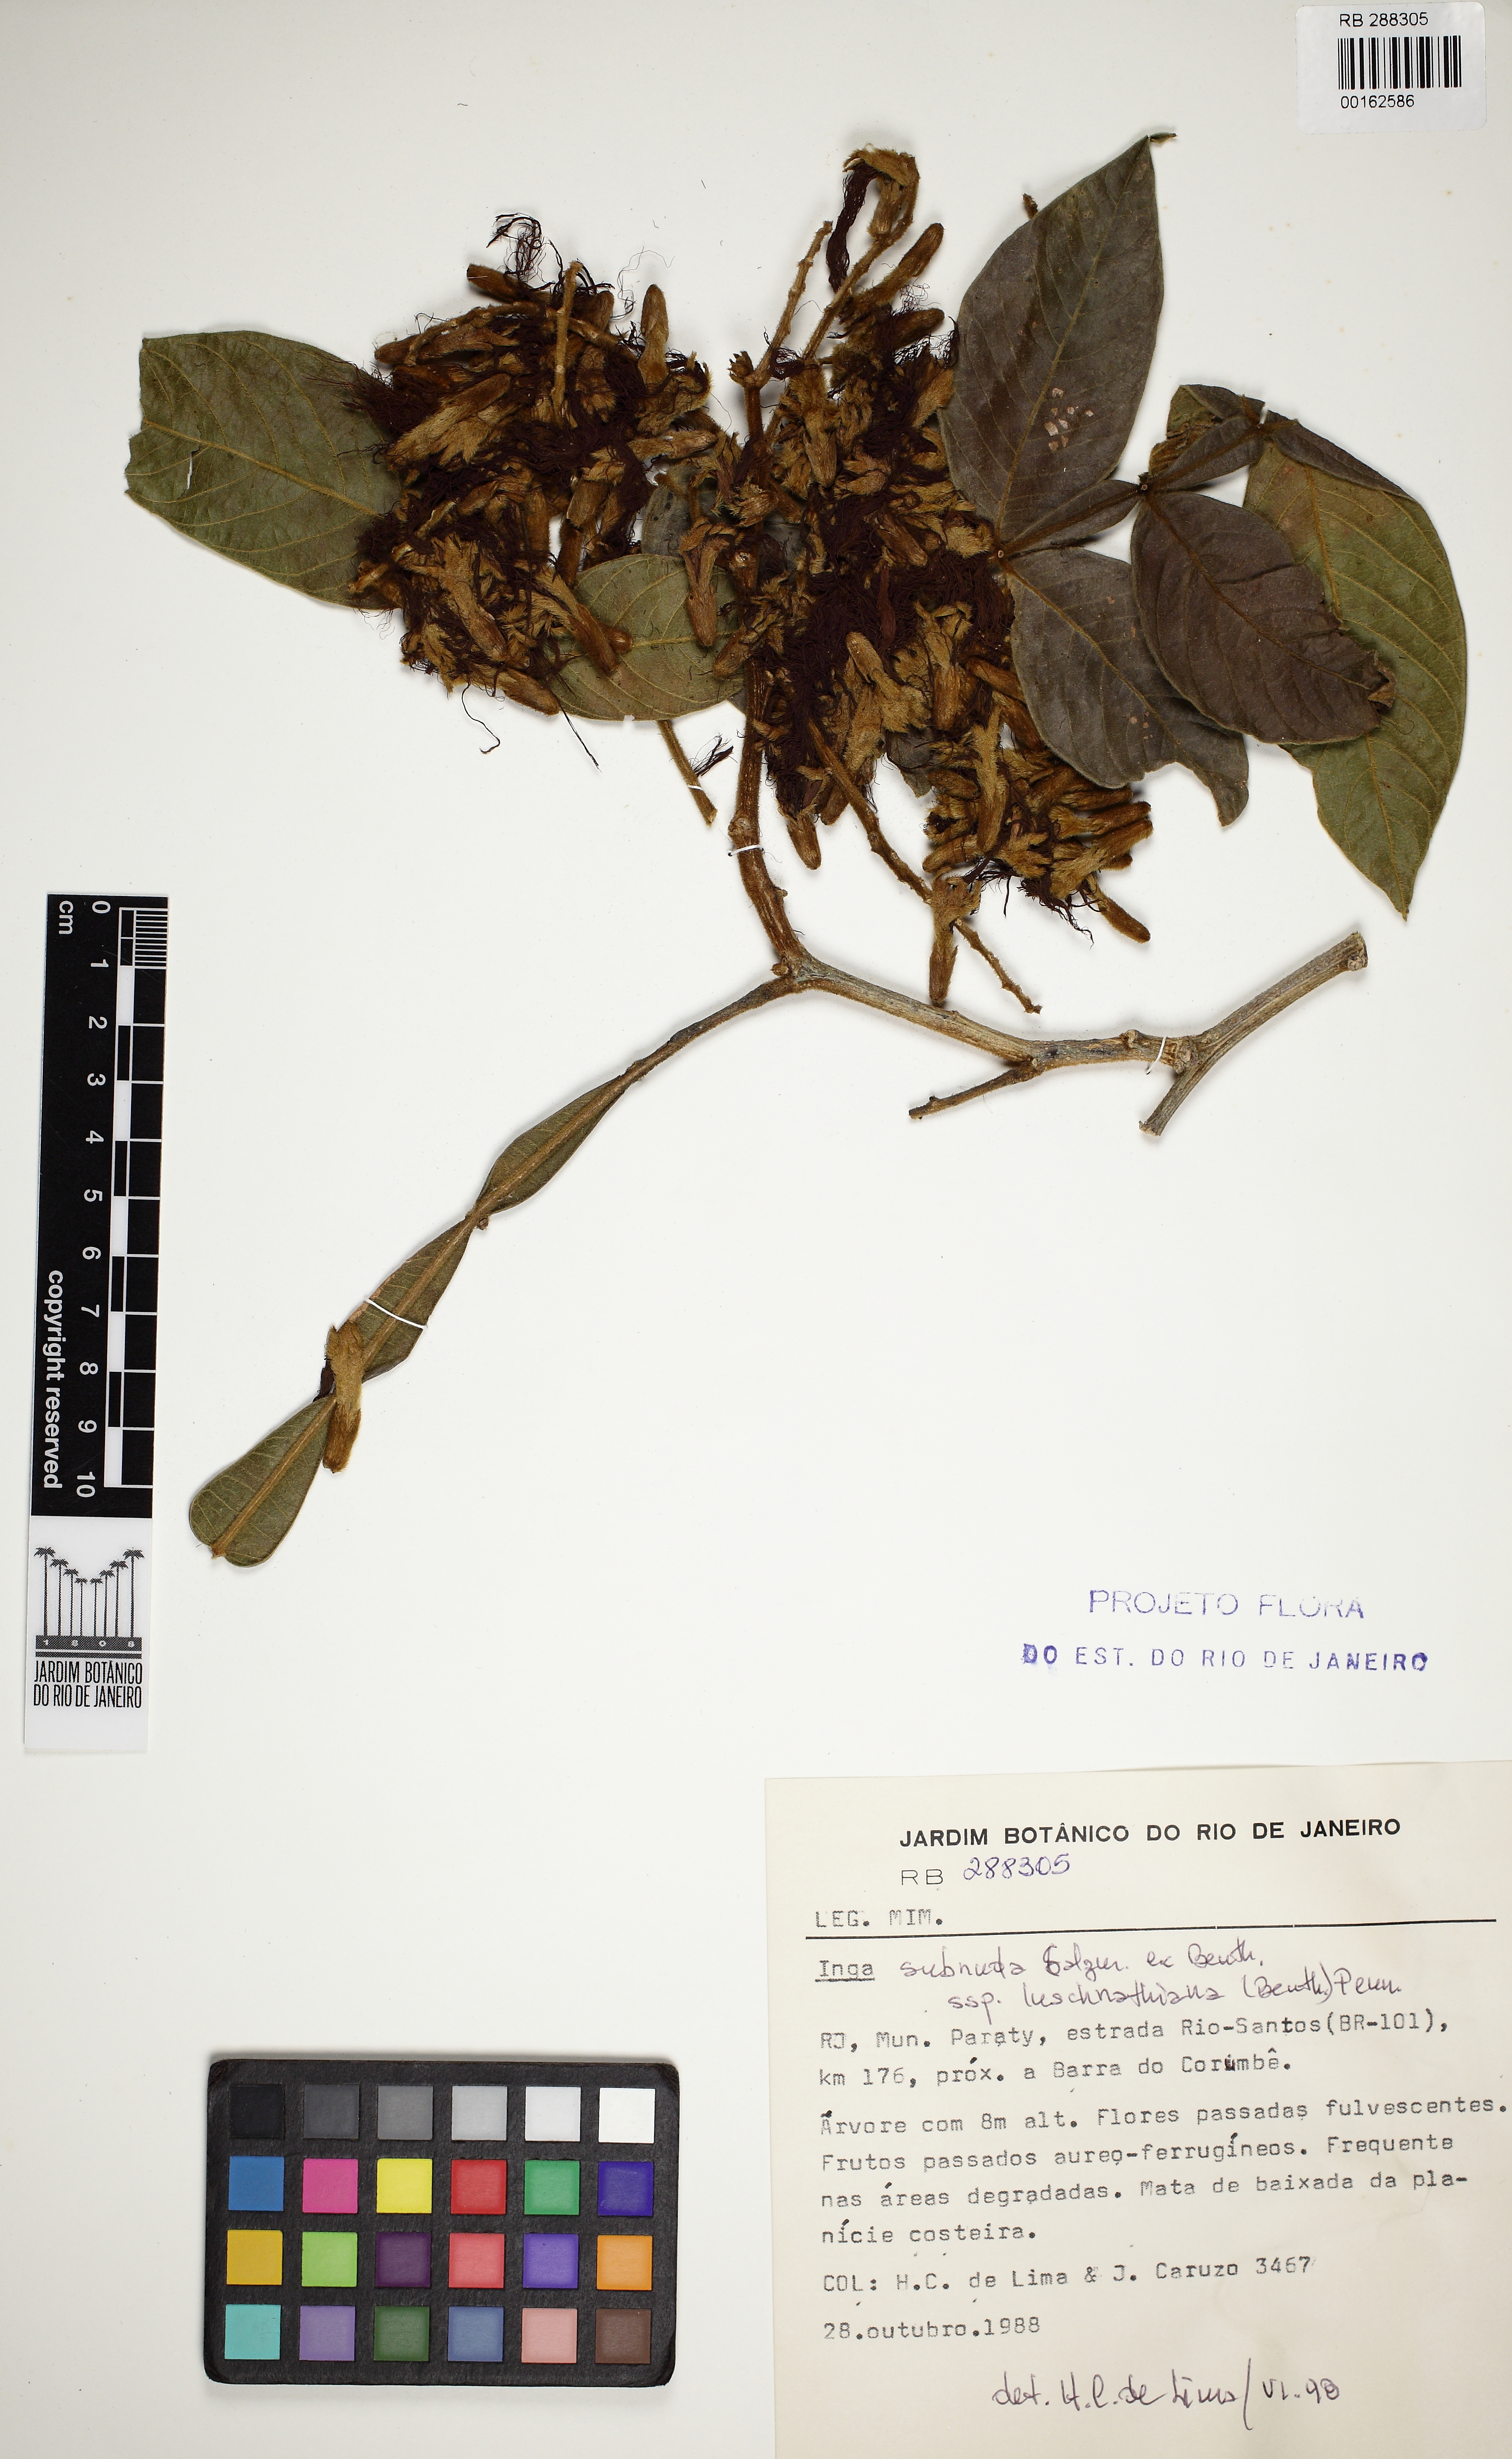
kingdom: Plantae
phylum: Tracheophyta
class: Magnoliopsida
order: Fabales
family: Fabaceae
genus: Inga
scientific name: Inga affinis
